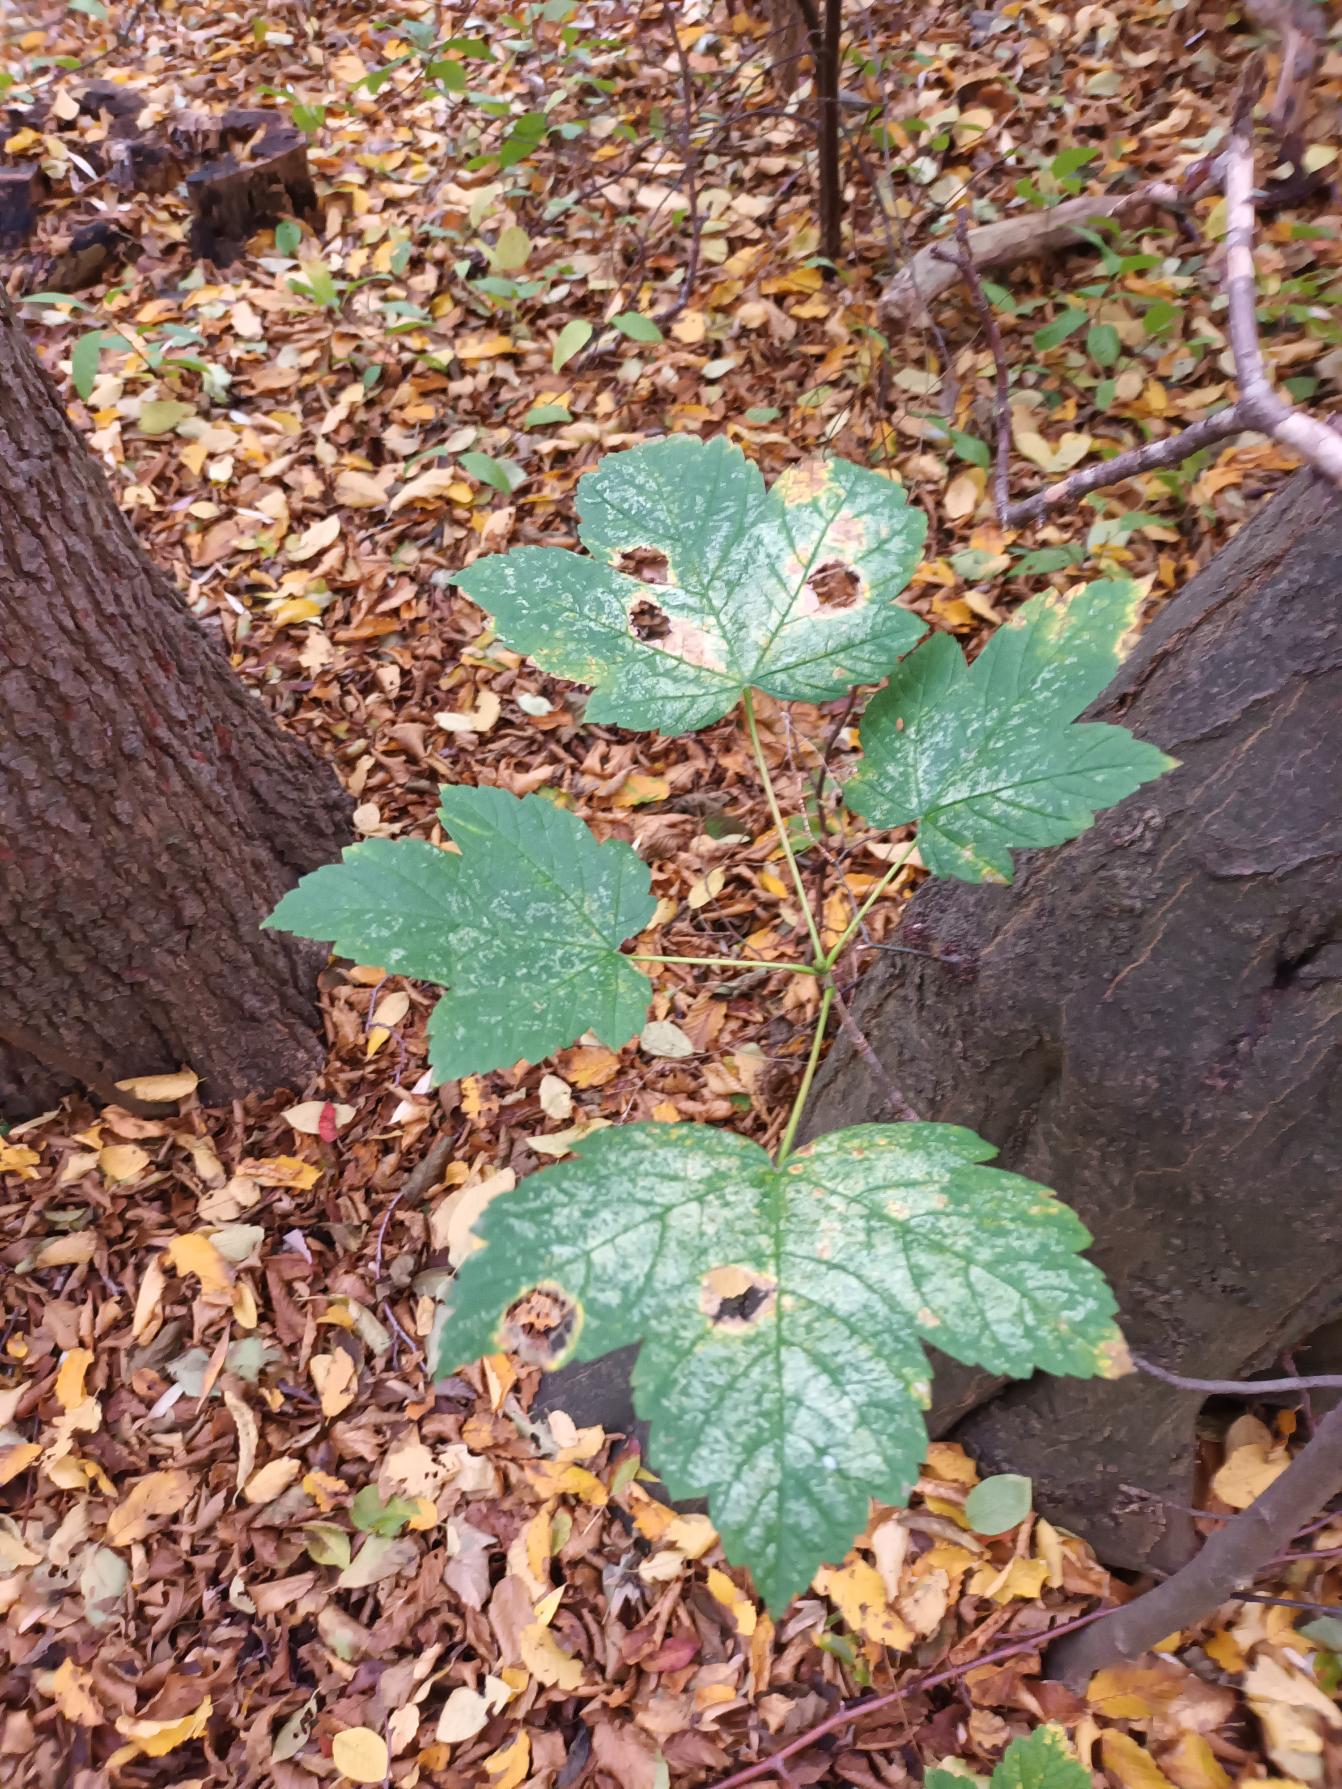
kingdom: Plantae
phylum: Tracheophyta
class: Magnoliopsida
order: Sapindales
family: Sapindaceae
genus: Acer
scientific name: Acer pseudoplatanus
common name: Ahorn
